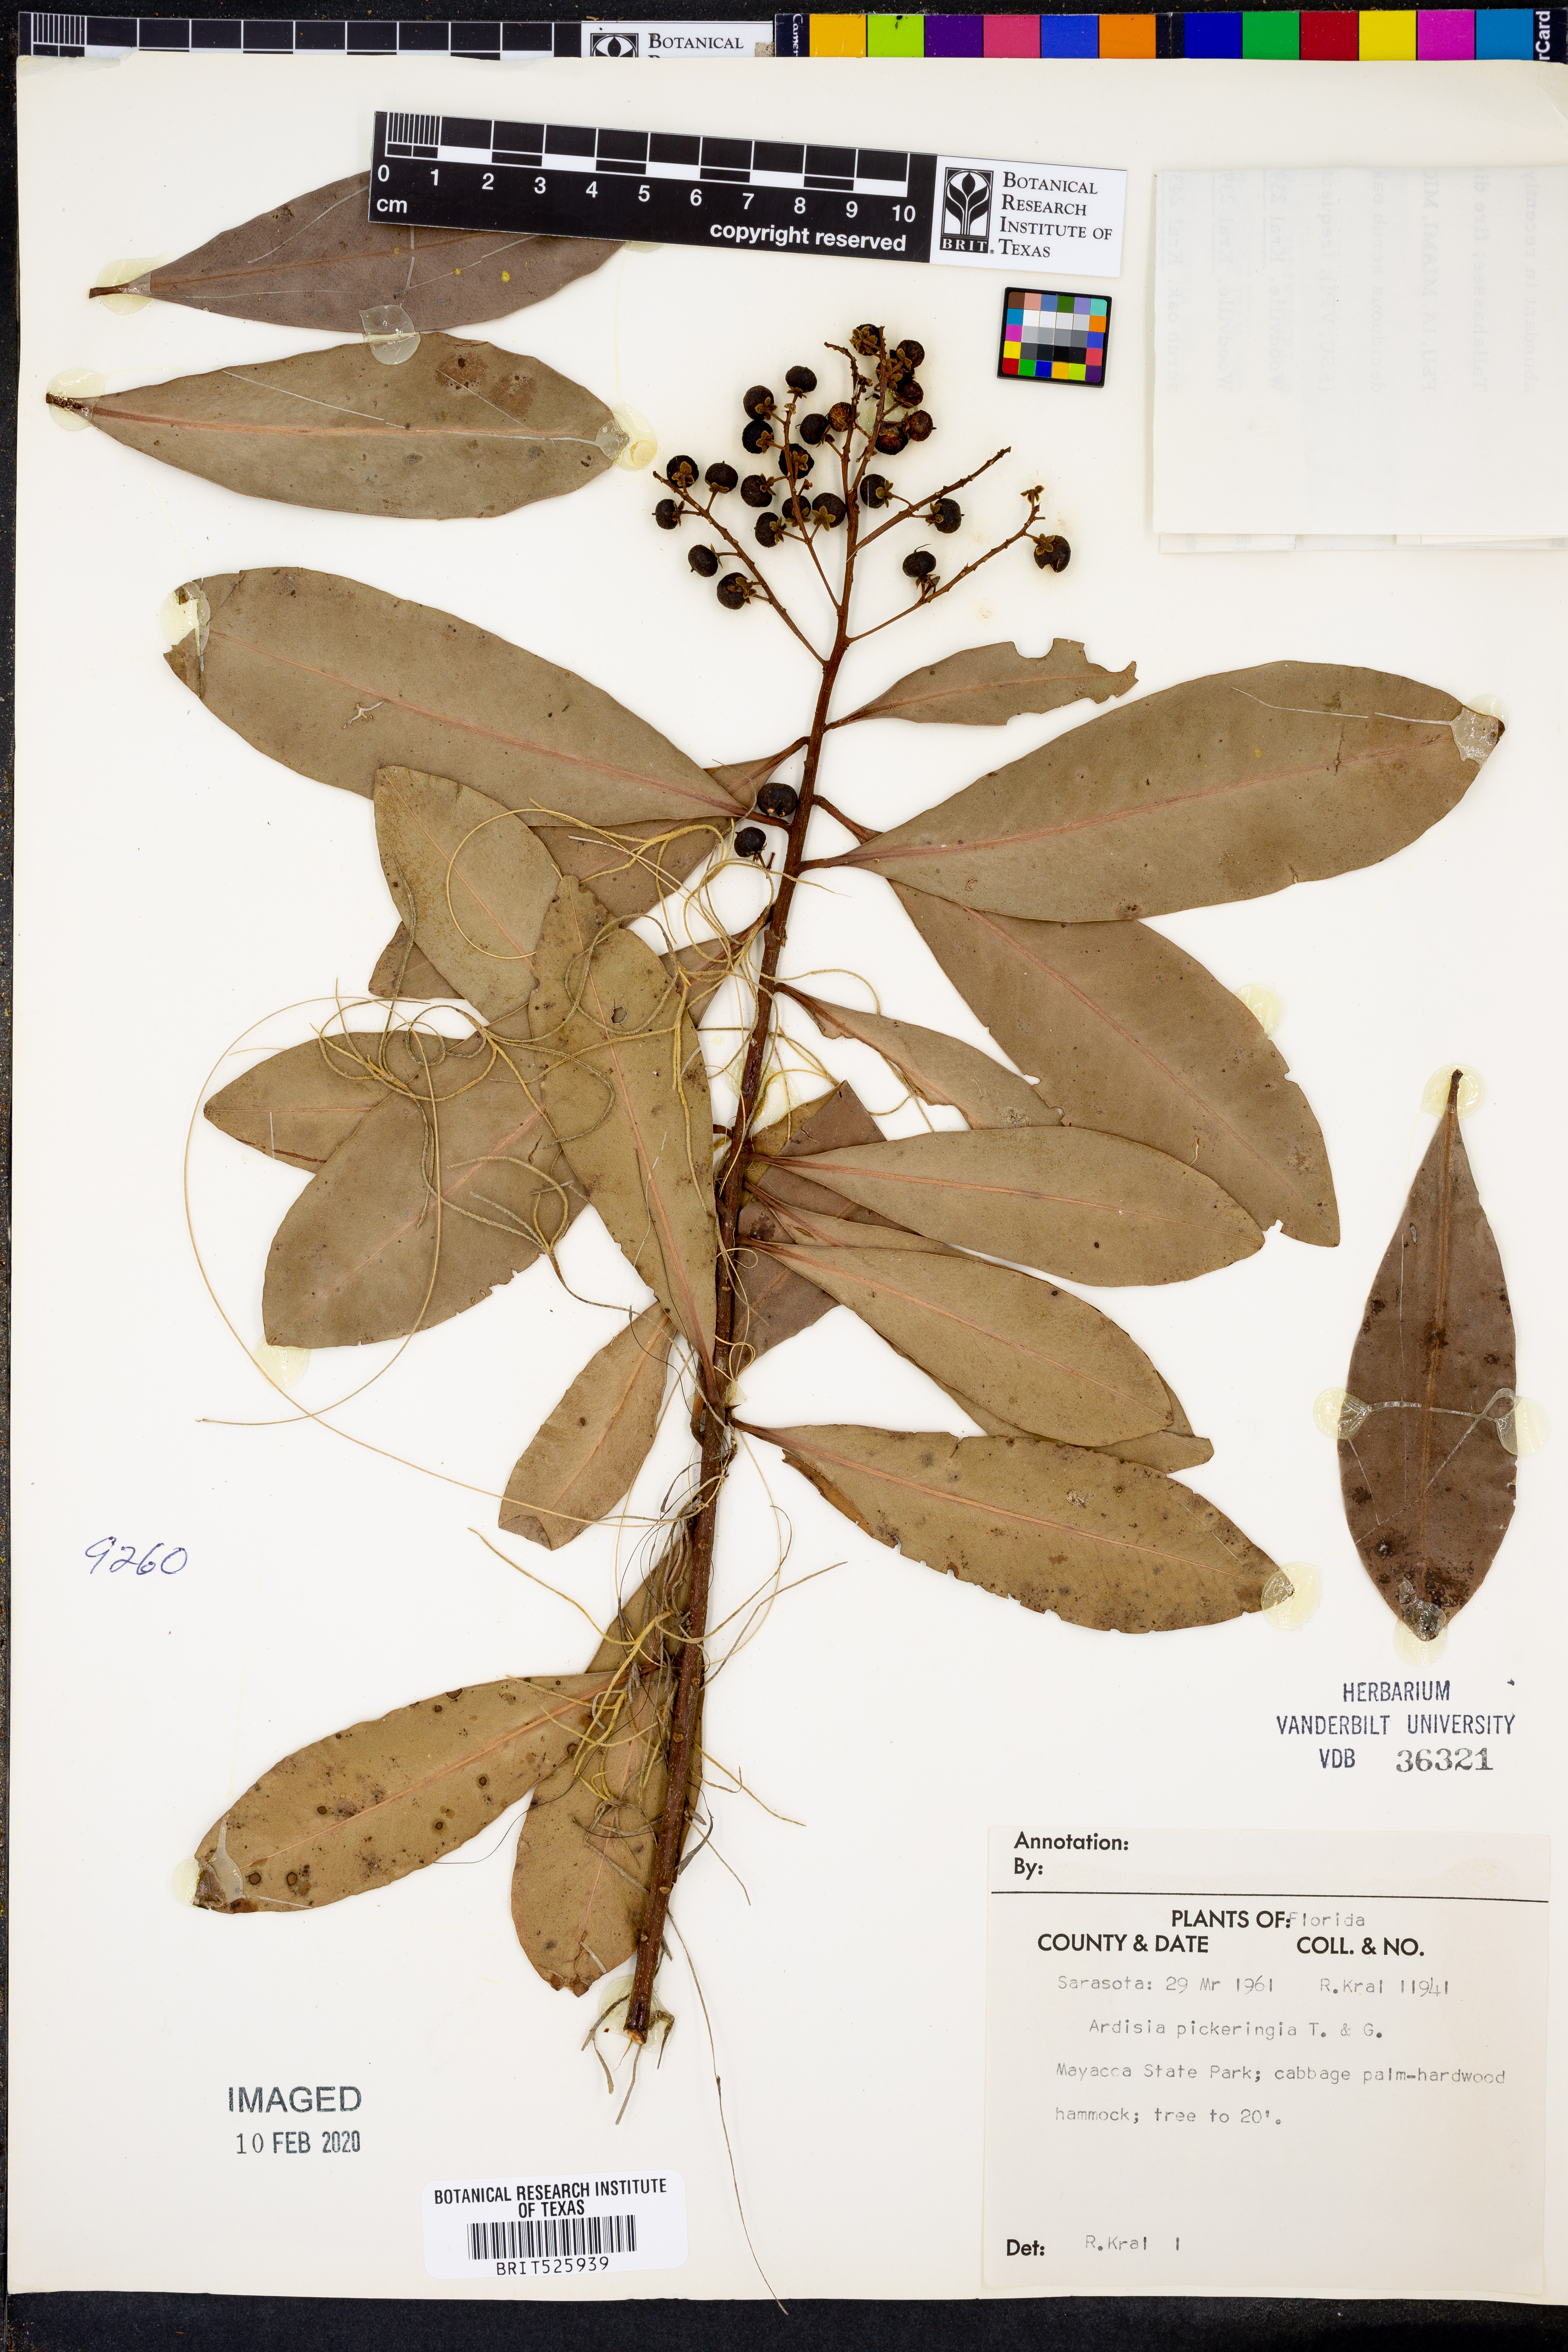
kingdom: Plantae
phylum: Tracheophyta
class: Magnoliopsida
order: Ericales
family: Primulaceae
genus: Ardisia
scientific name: Ardisia escallonioides
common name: Island marlberry
